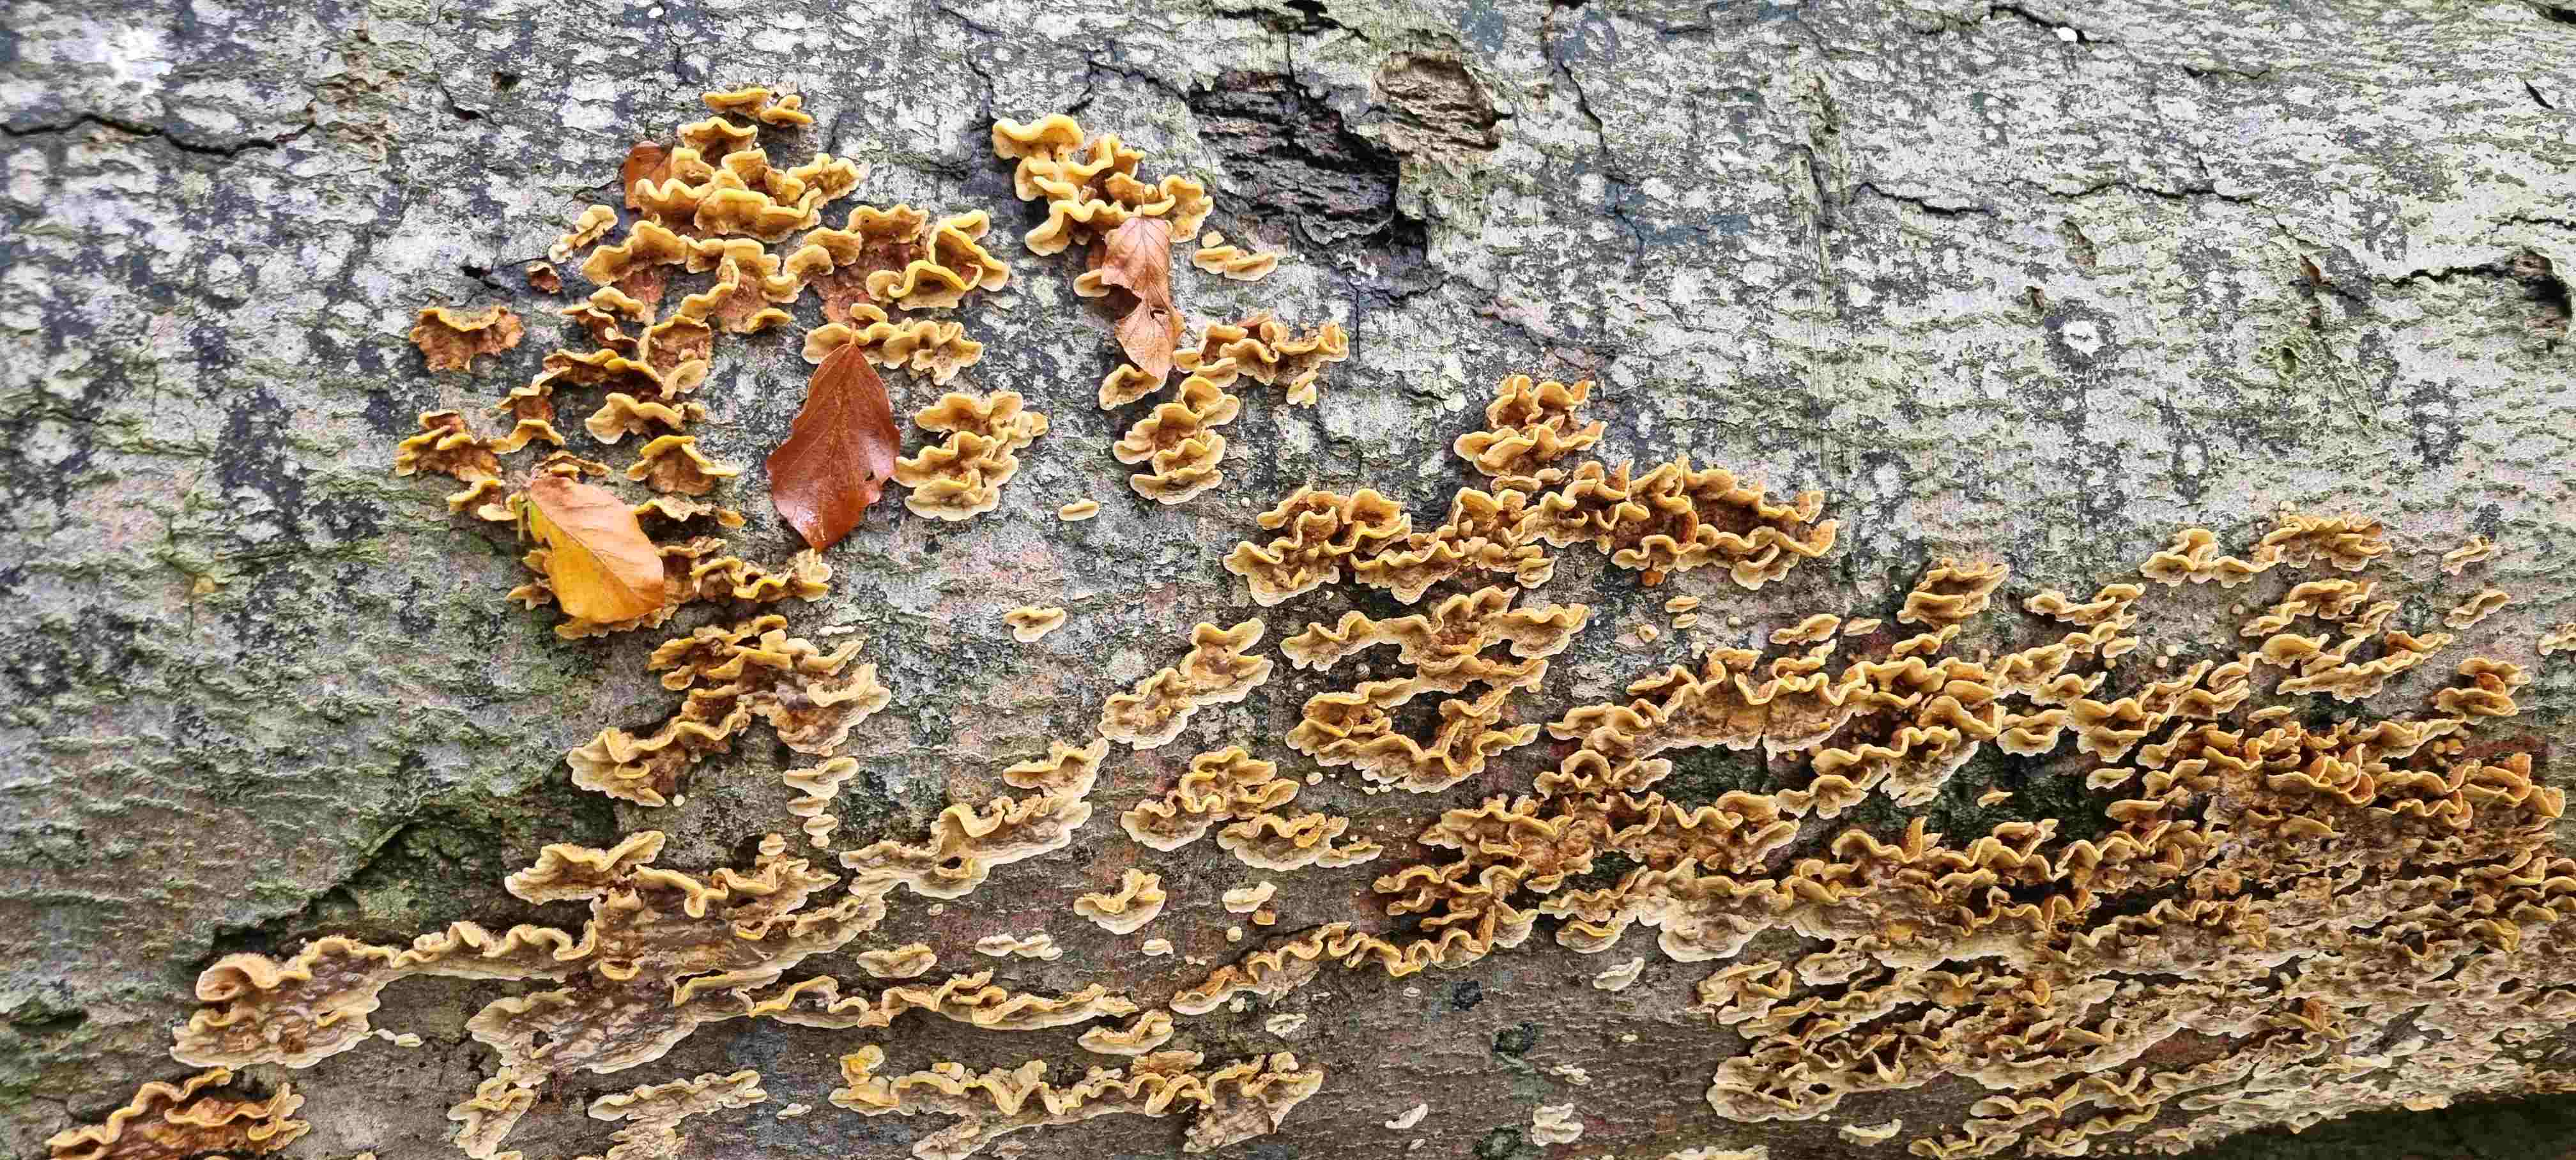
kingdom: Fungi
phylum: Basidiomycota
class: Agaricomycetes
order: Russulales
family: Stereaceae
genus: Stereum
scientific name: Stereum hirsutum
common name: håret lædersvamp
